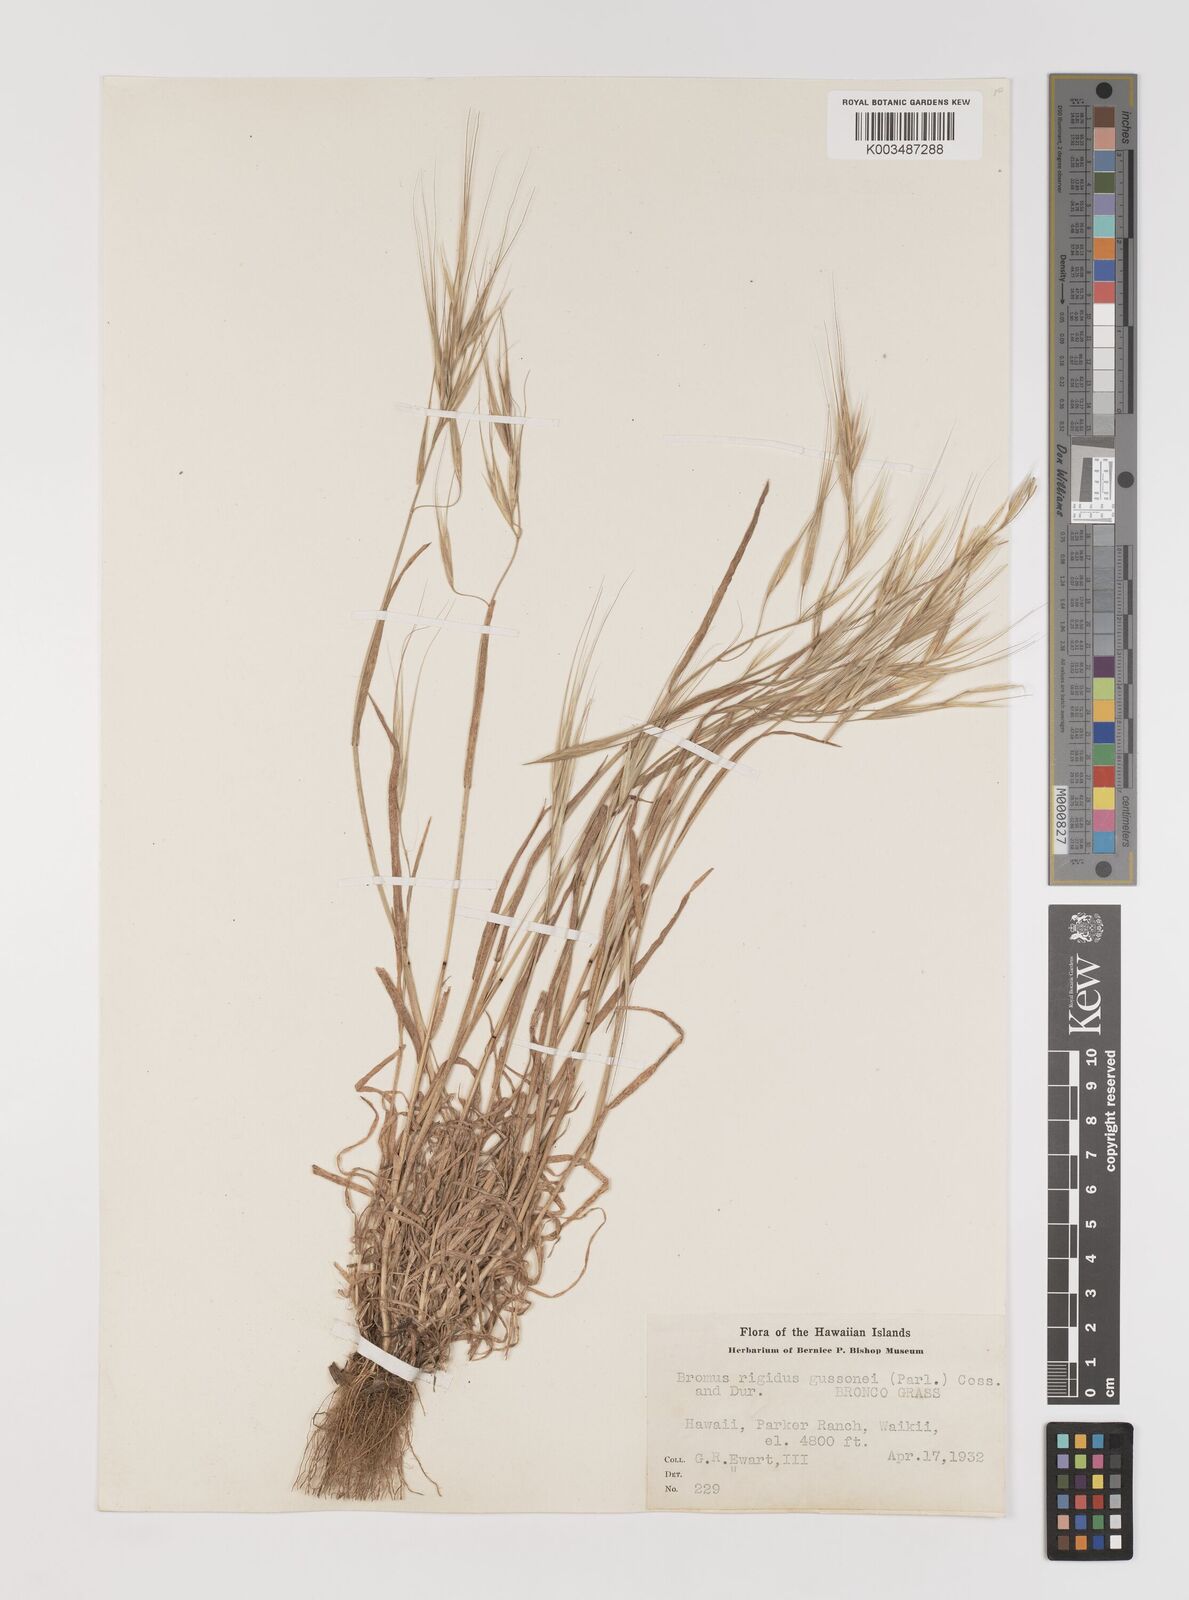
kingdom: Plantae
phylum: Tracheophyta
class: Liliopsida
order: Poales
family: Poaceae
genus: Bromus
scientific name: Bromus
